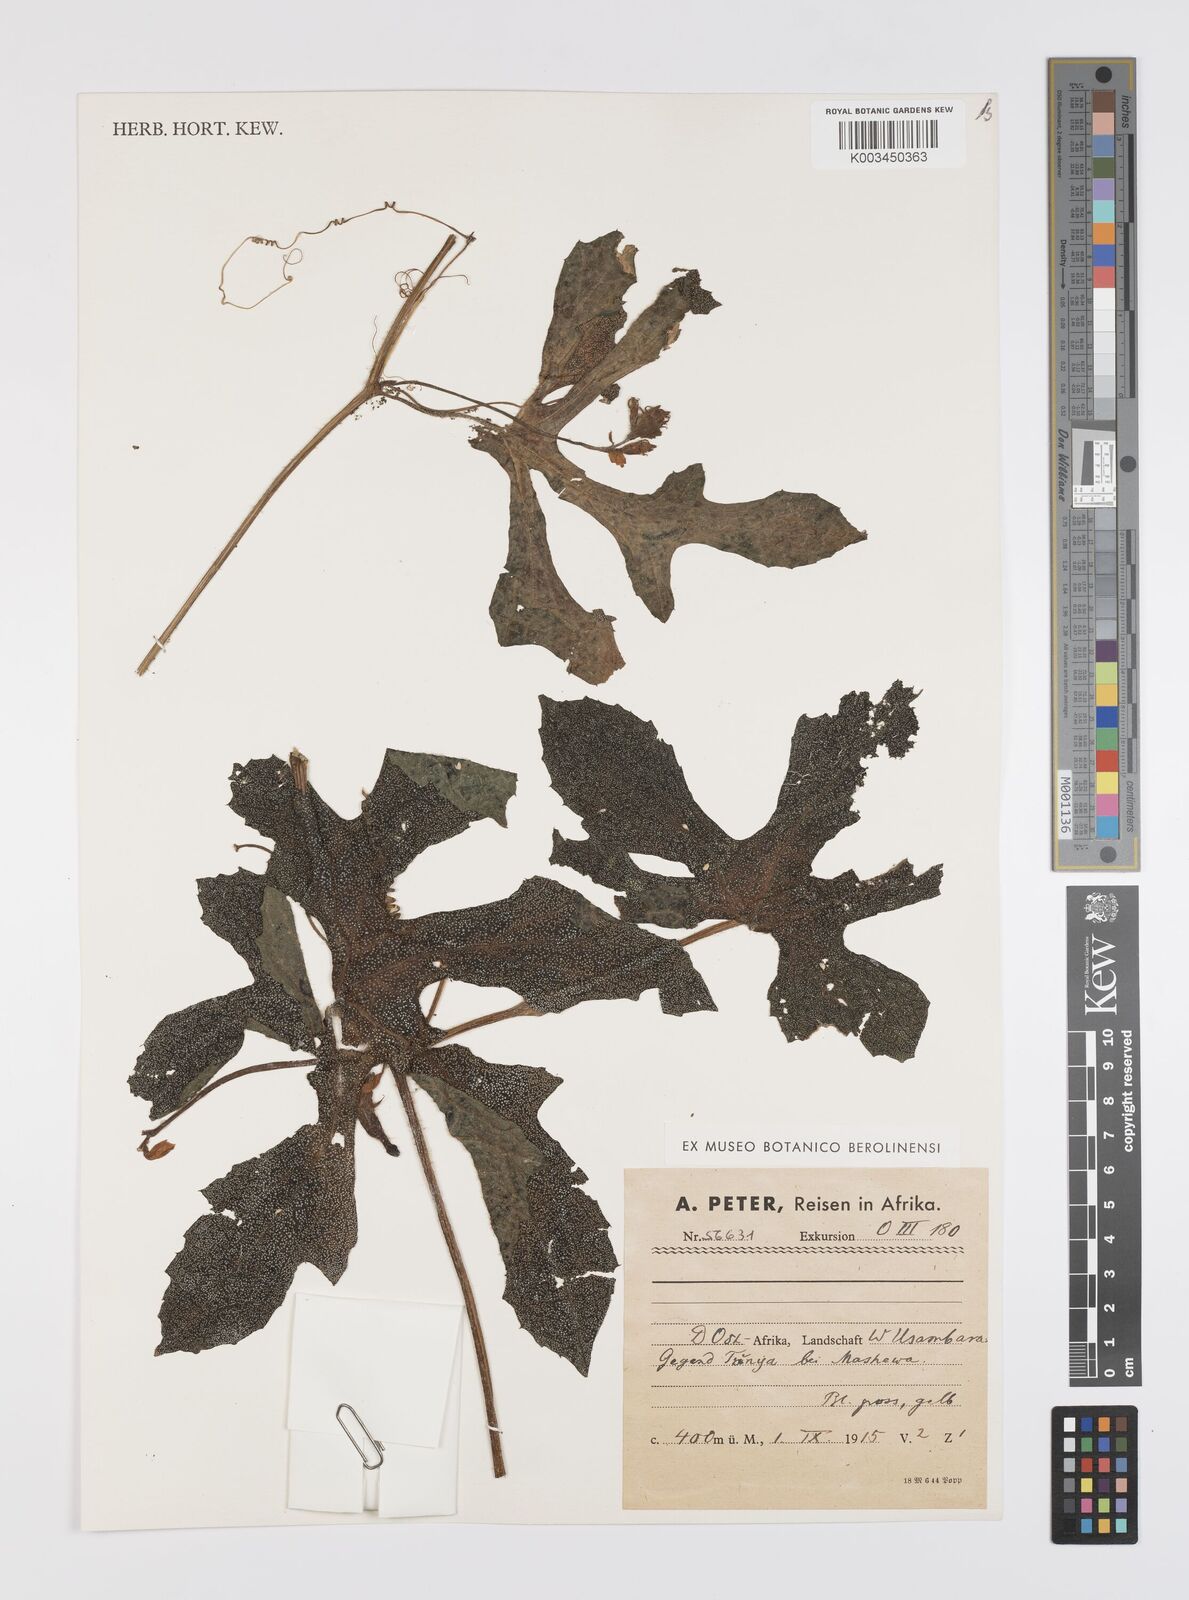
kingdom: Plantae
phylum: Tracheophyta
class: Magnoliopsida
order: Cucurbitales
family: Cucurbitaceae
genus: Peponium
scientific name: Peponium vogelii
